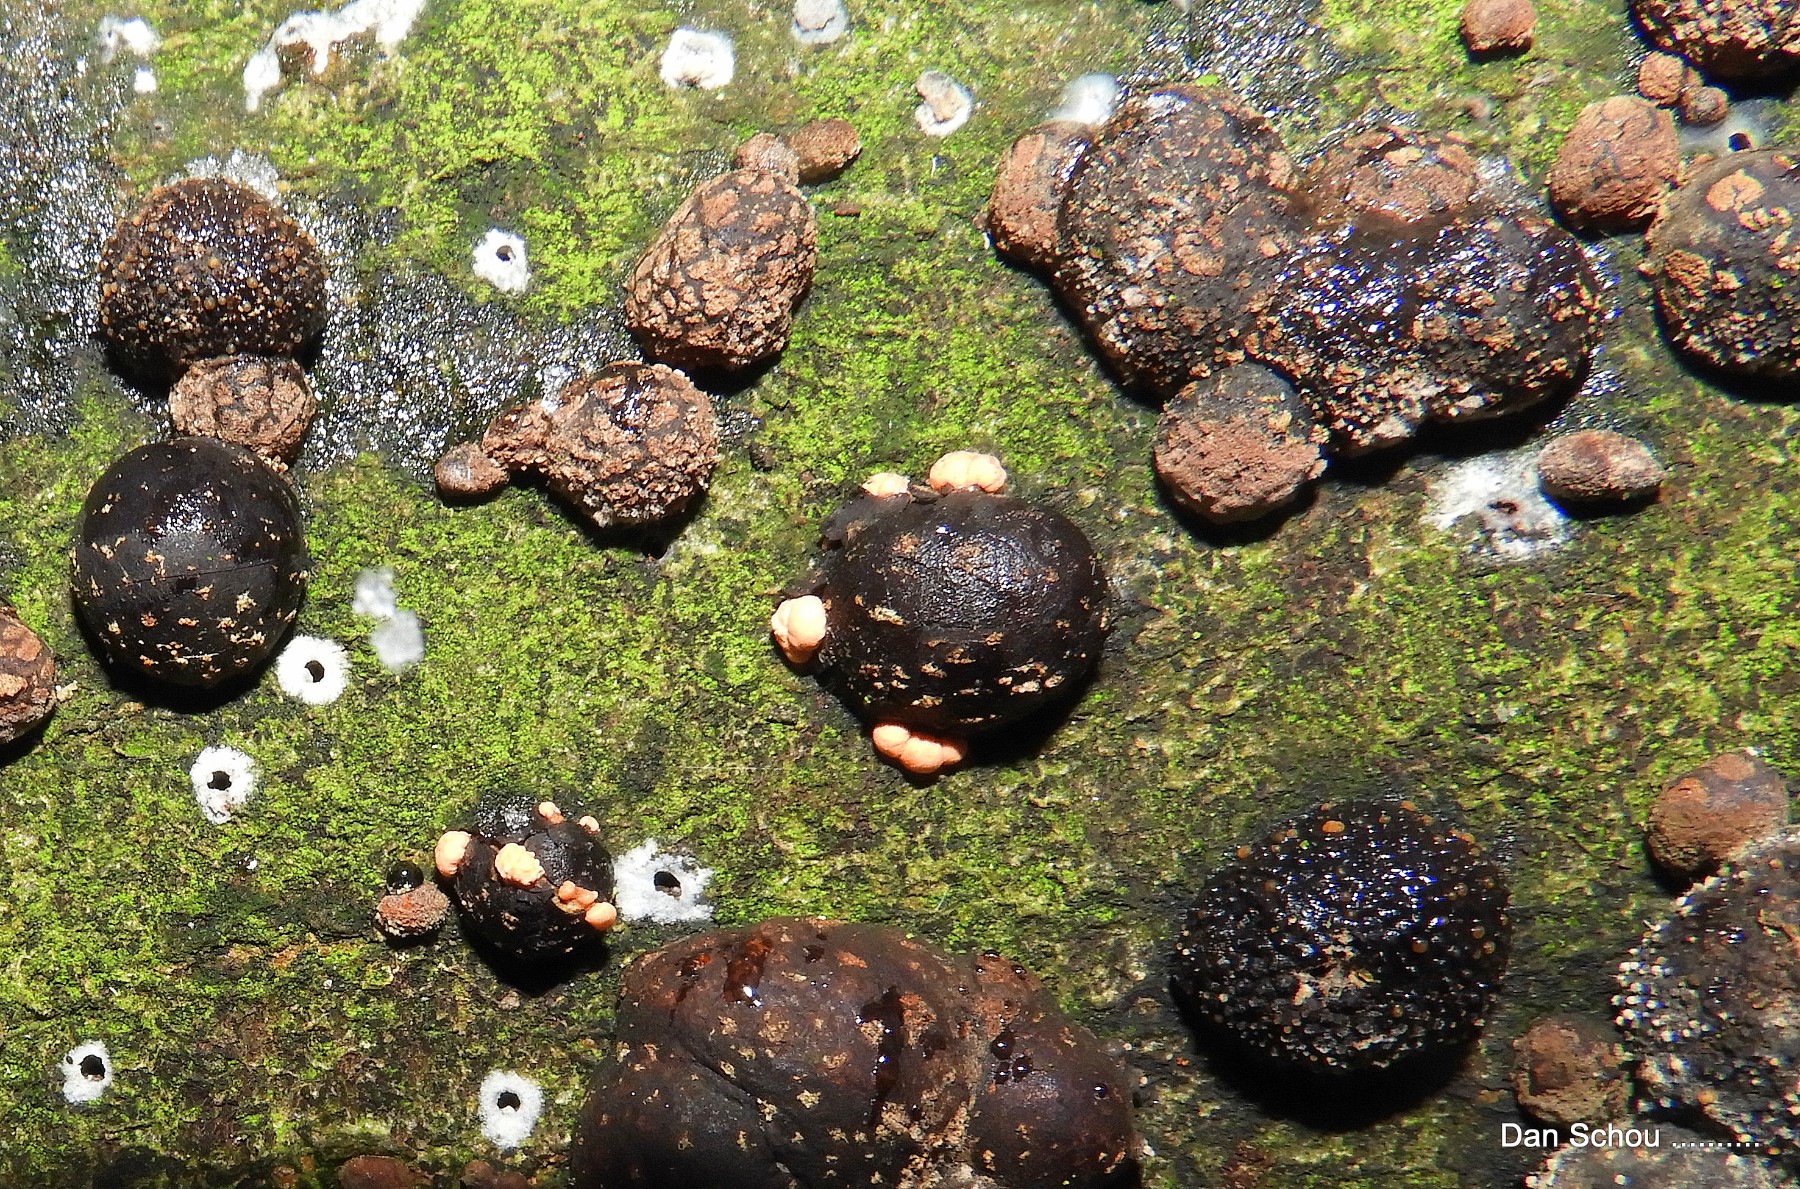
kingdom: Fungi
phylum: Ascomycota
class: Sordariomycetes
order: Xylariales
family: Hypoxylaceae
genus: Hypoxylon
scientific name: Hypoxylon fragiforme
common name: kuljordbær
